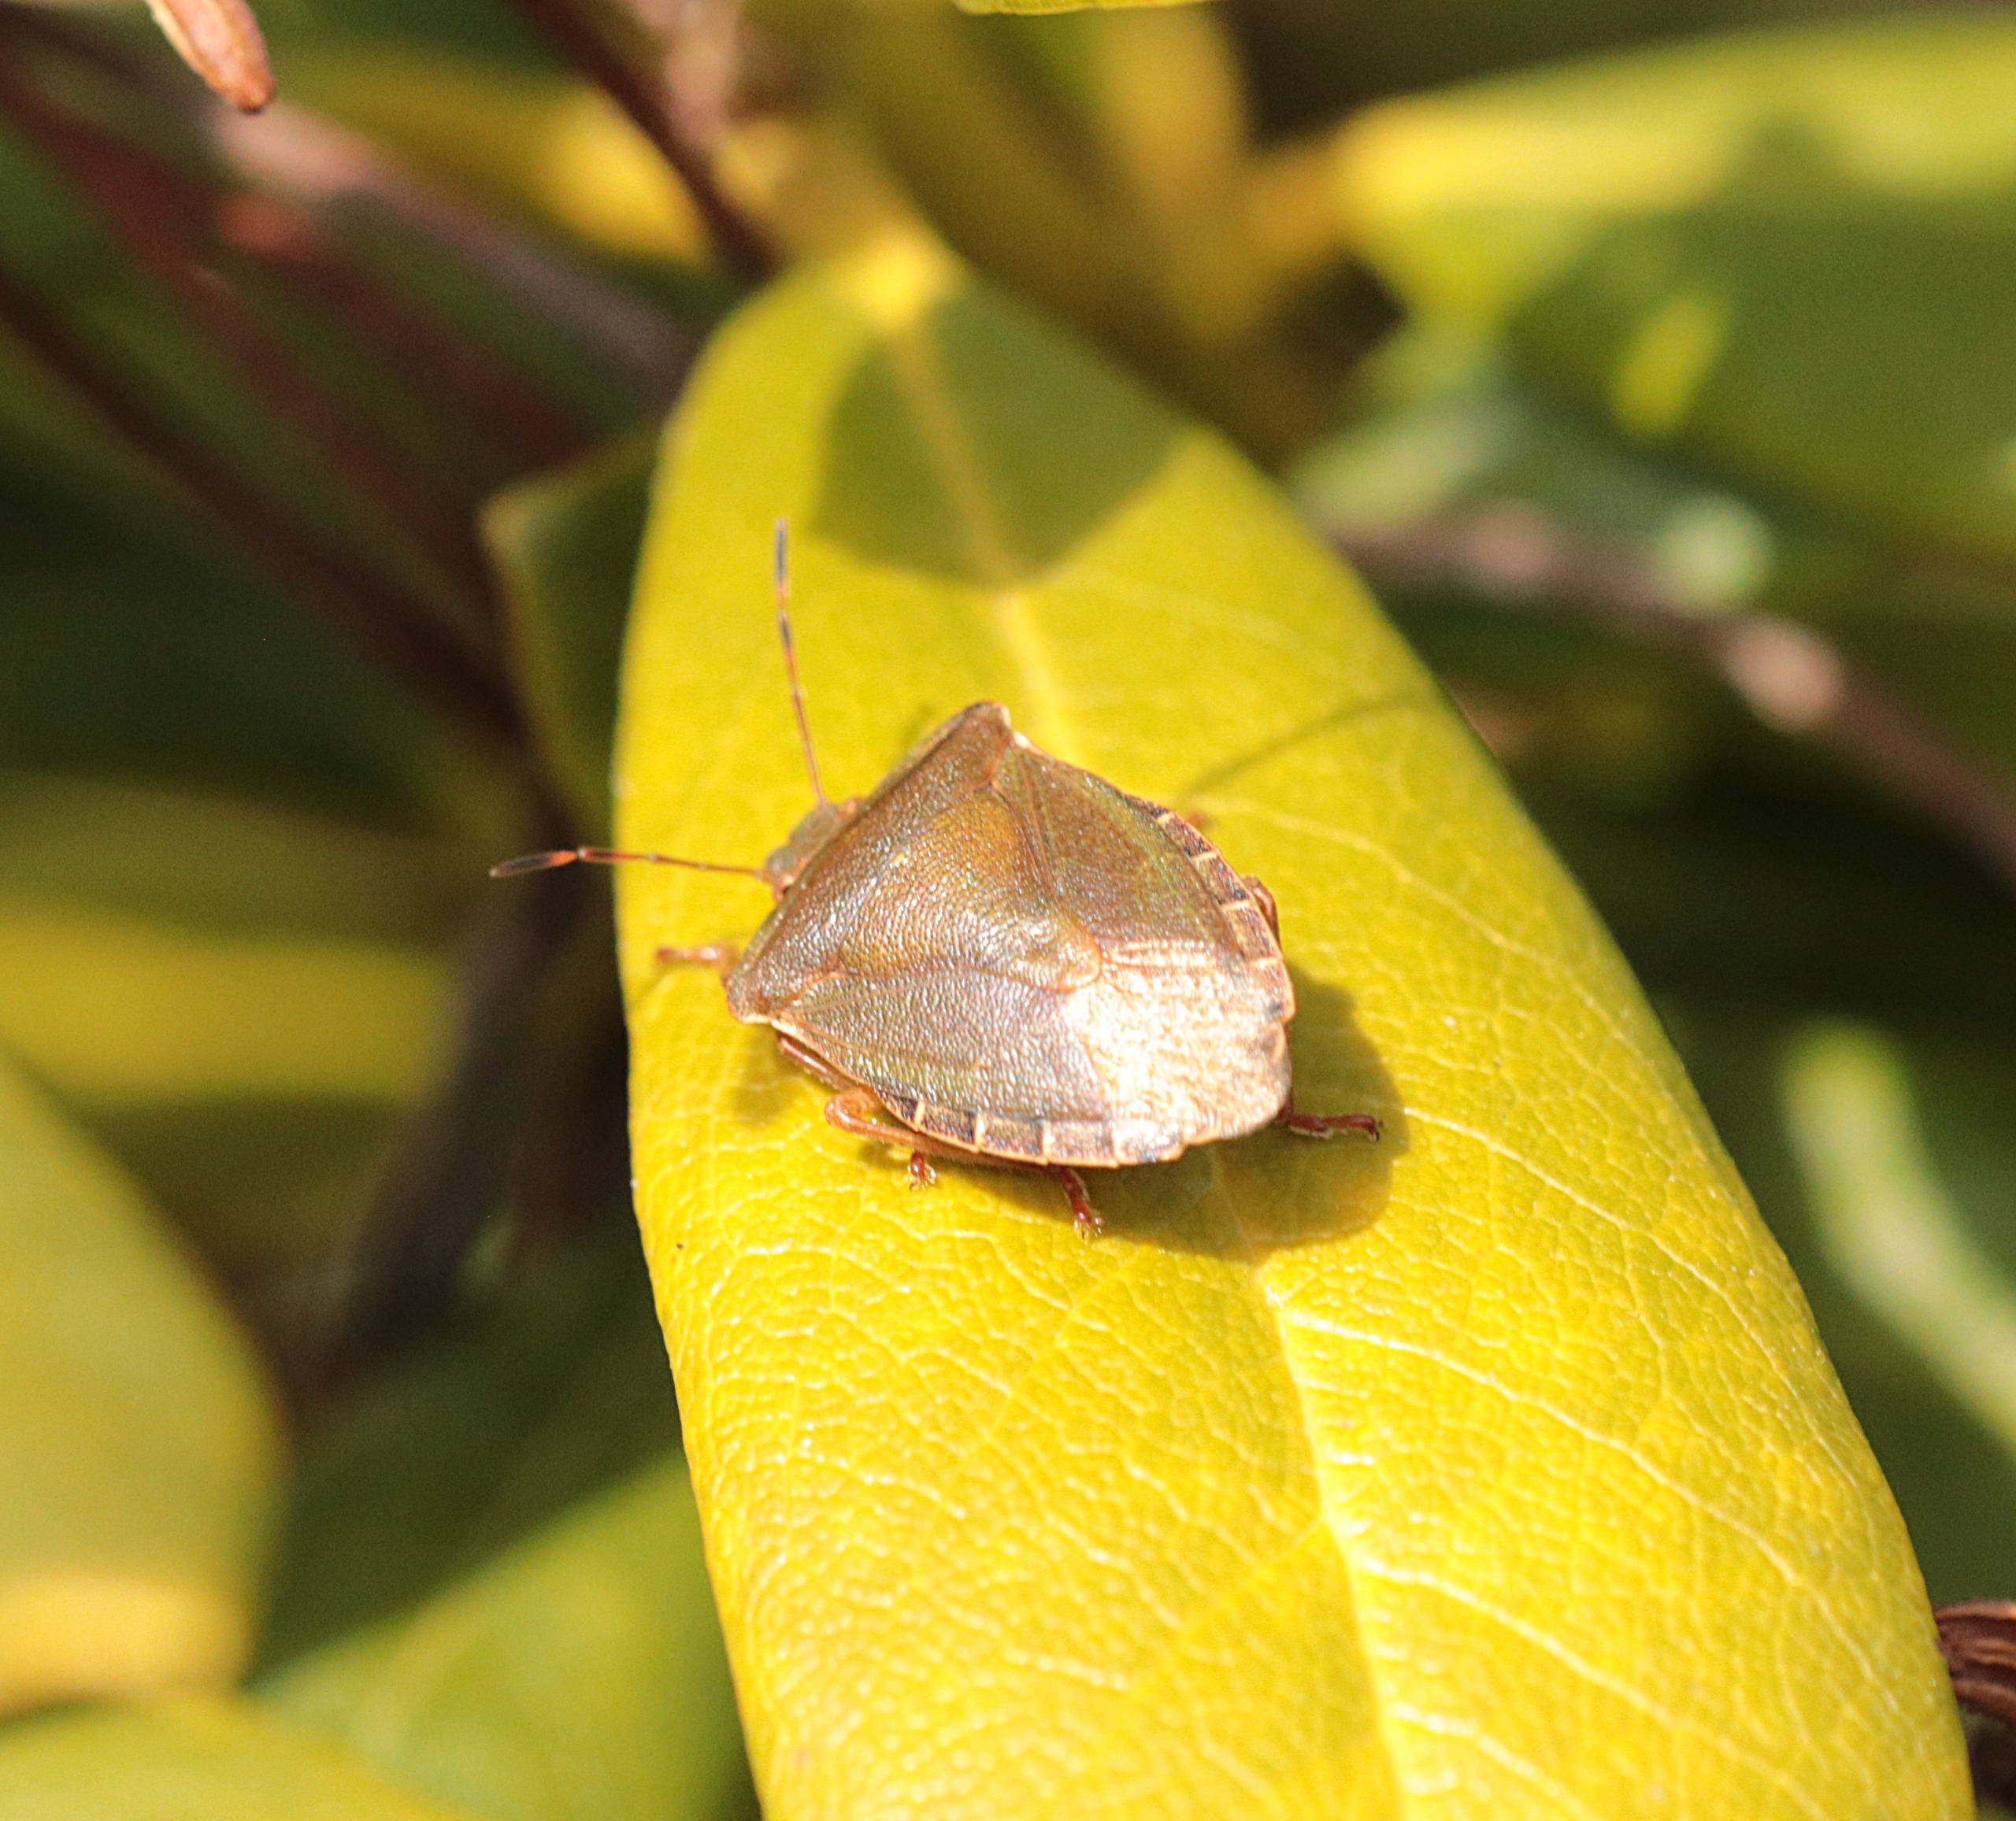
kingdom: Animalia
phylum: Arthropoda
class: Insecta
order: Hemiptera
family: Pentatomidae
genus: Palomena
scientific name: Palomena prasina
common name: Grøn bredtæge
